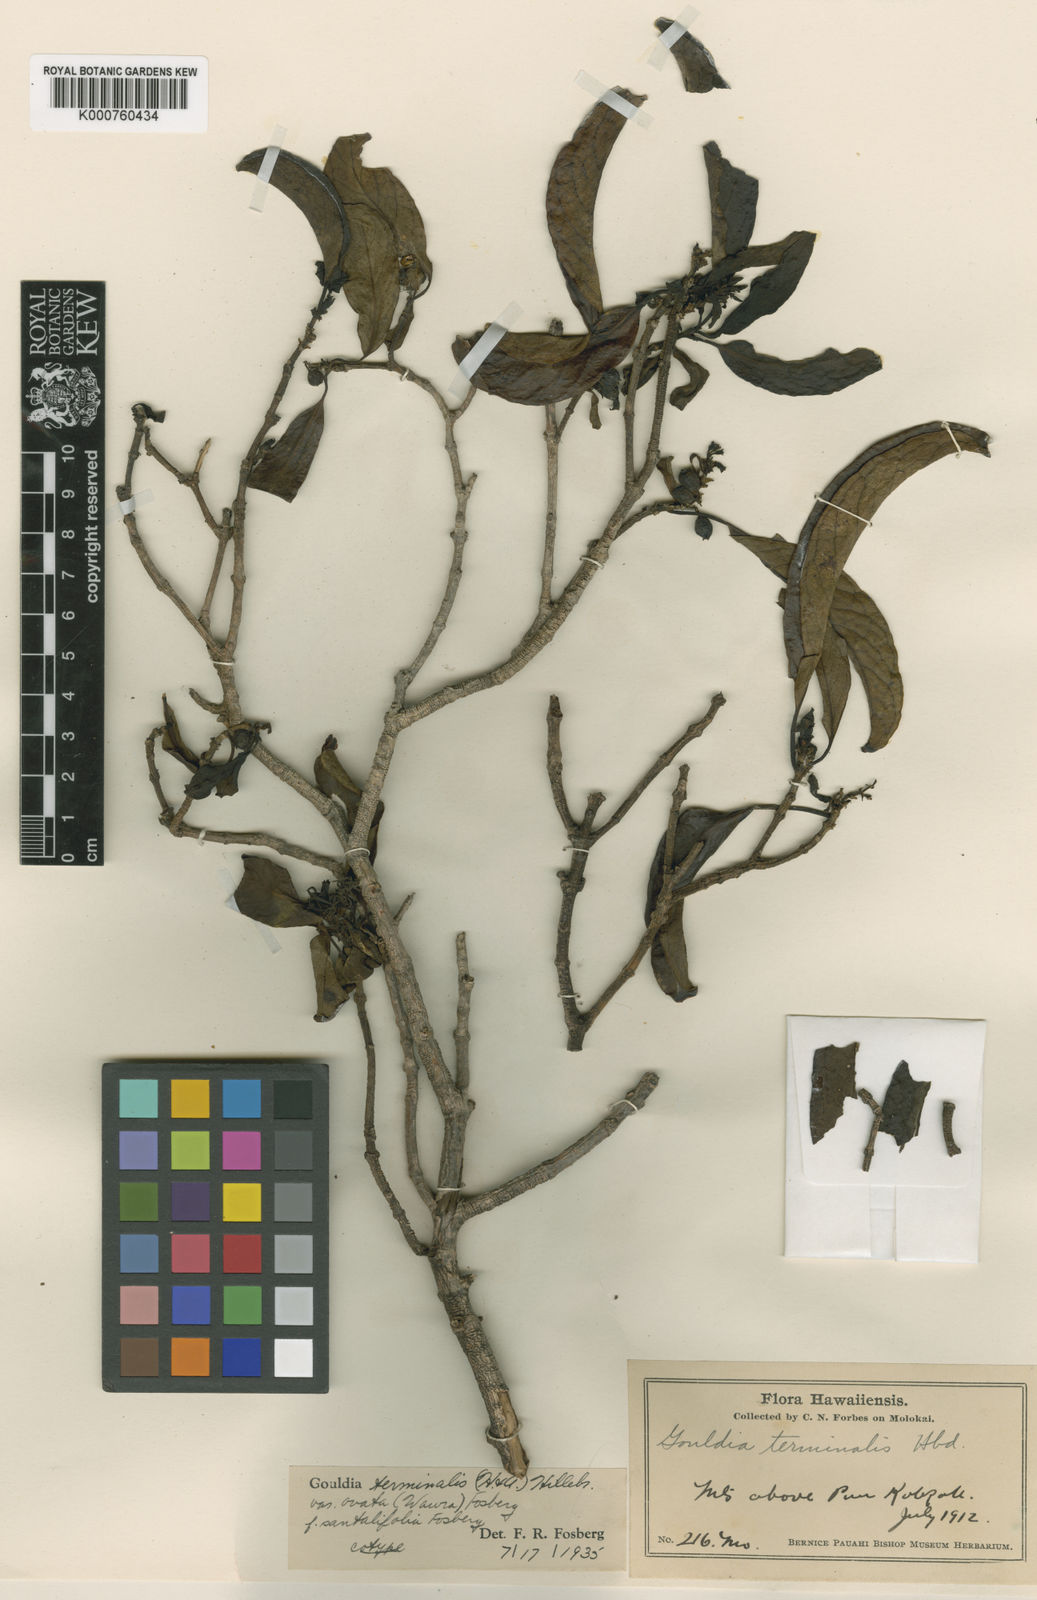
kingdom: Plantae
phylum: Tracheophyta
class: Magnoliopsida
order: Gentianales
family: Rubiaceae
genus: Kadua
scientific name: Kadua affinis
